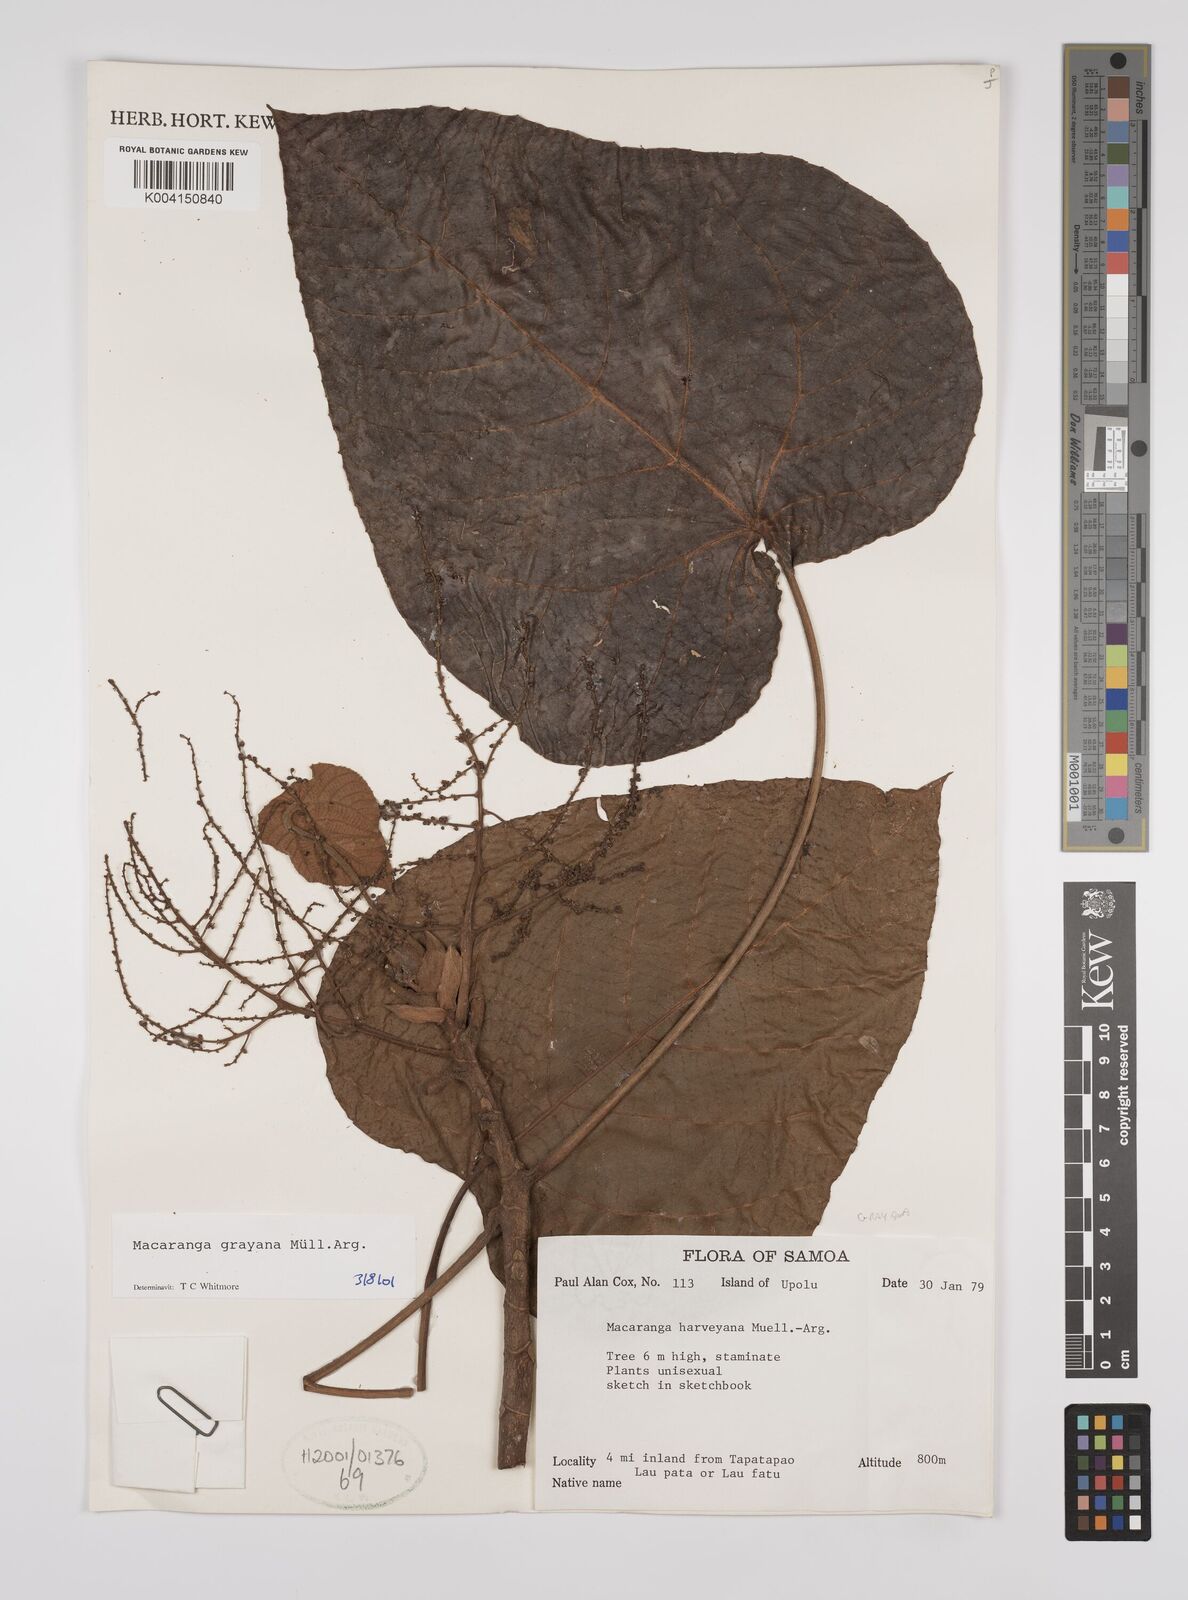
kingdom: Plantae
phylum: Tracheophyta
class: Magnoliopsida
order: Malpighiales
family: Euphorbiaceae
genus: Macaranga
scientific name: Macaranga grayana
